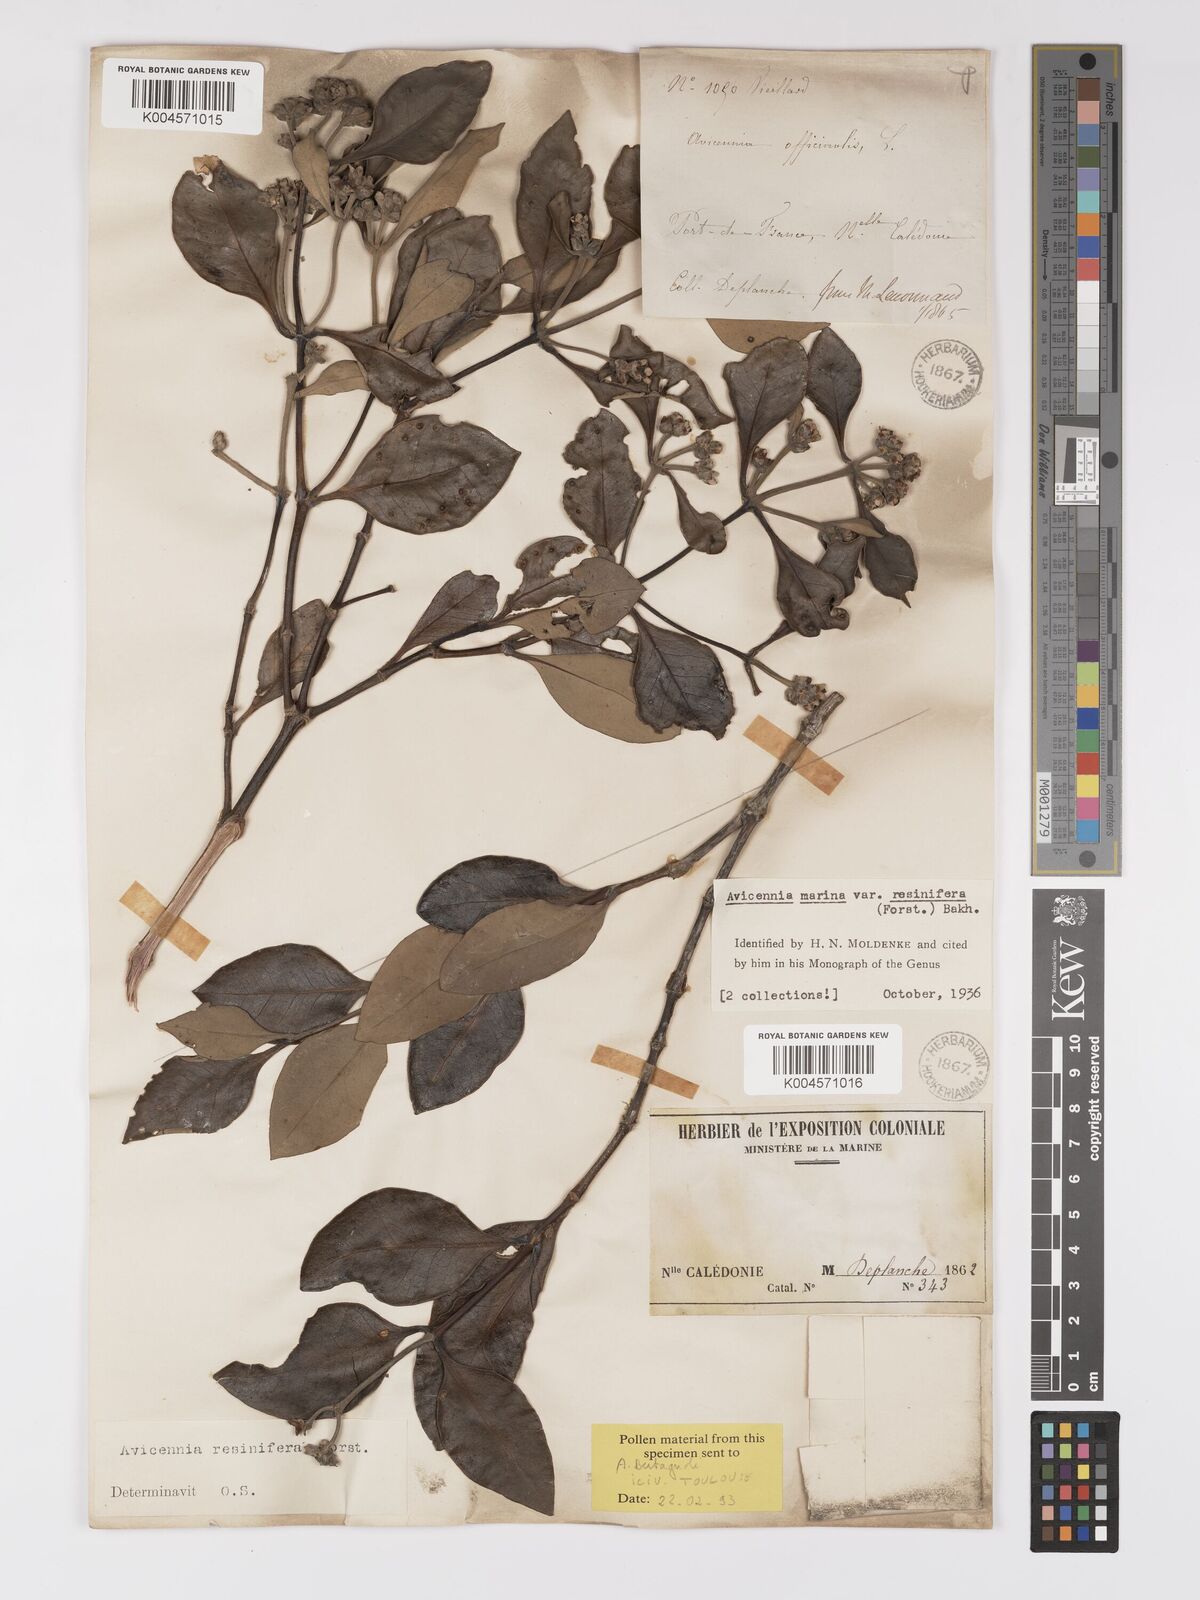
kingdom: Plantae
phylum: Tracheophyta
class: Magnoliopsida
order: Lamiales
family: Acanthaceae
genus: Avicennia
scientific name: Avicennia marina
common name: Gray mangrove
